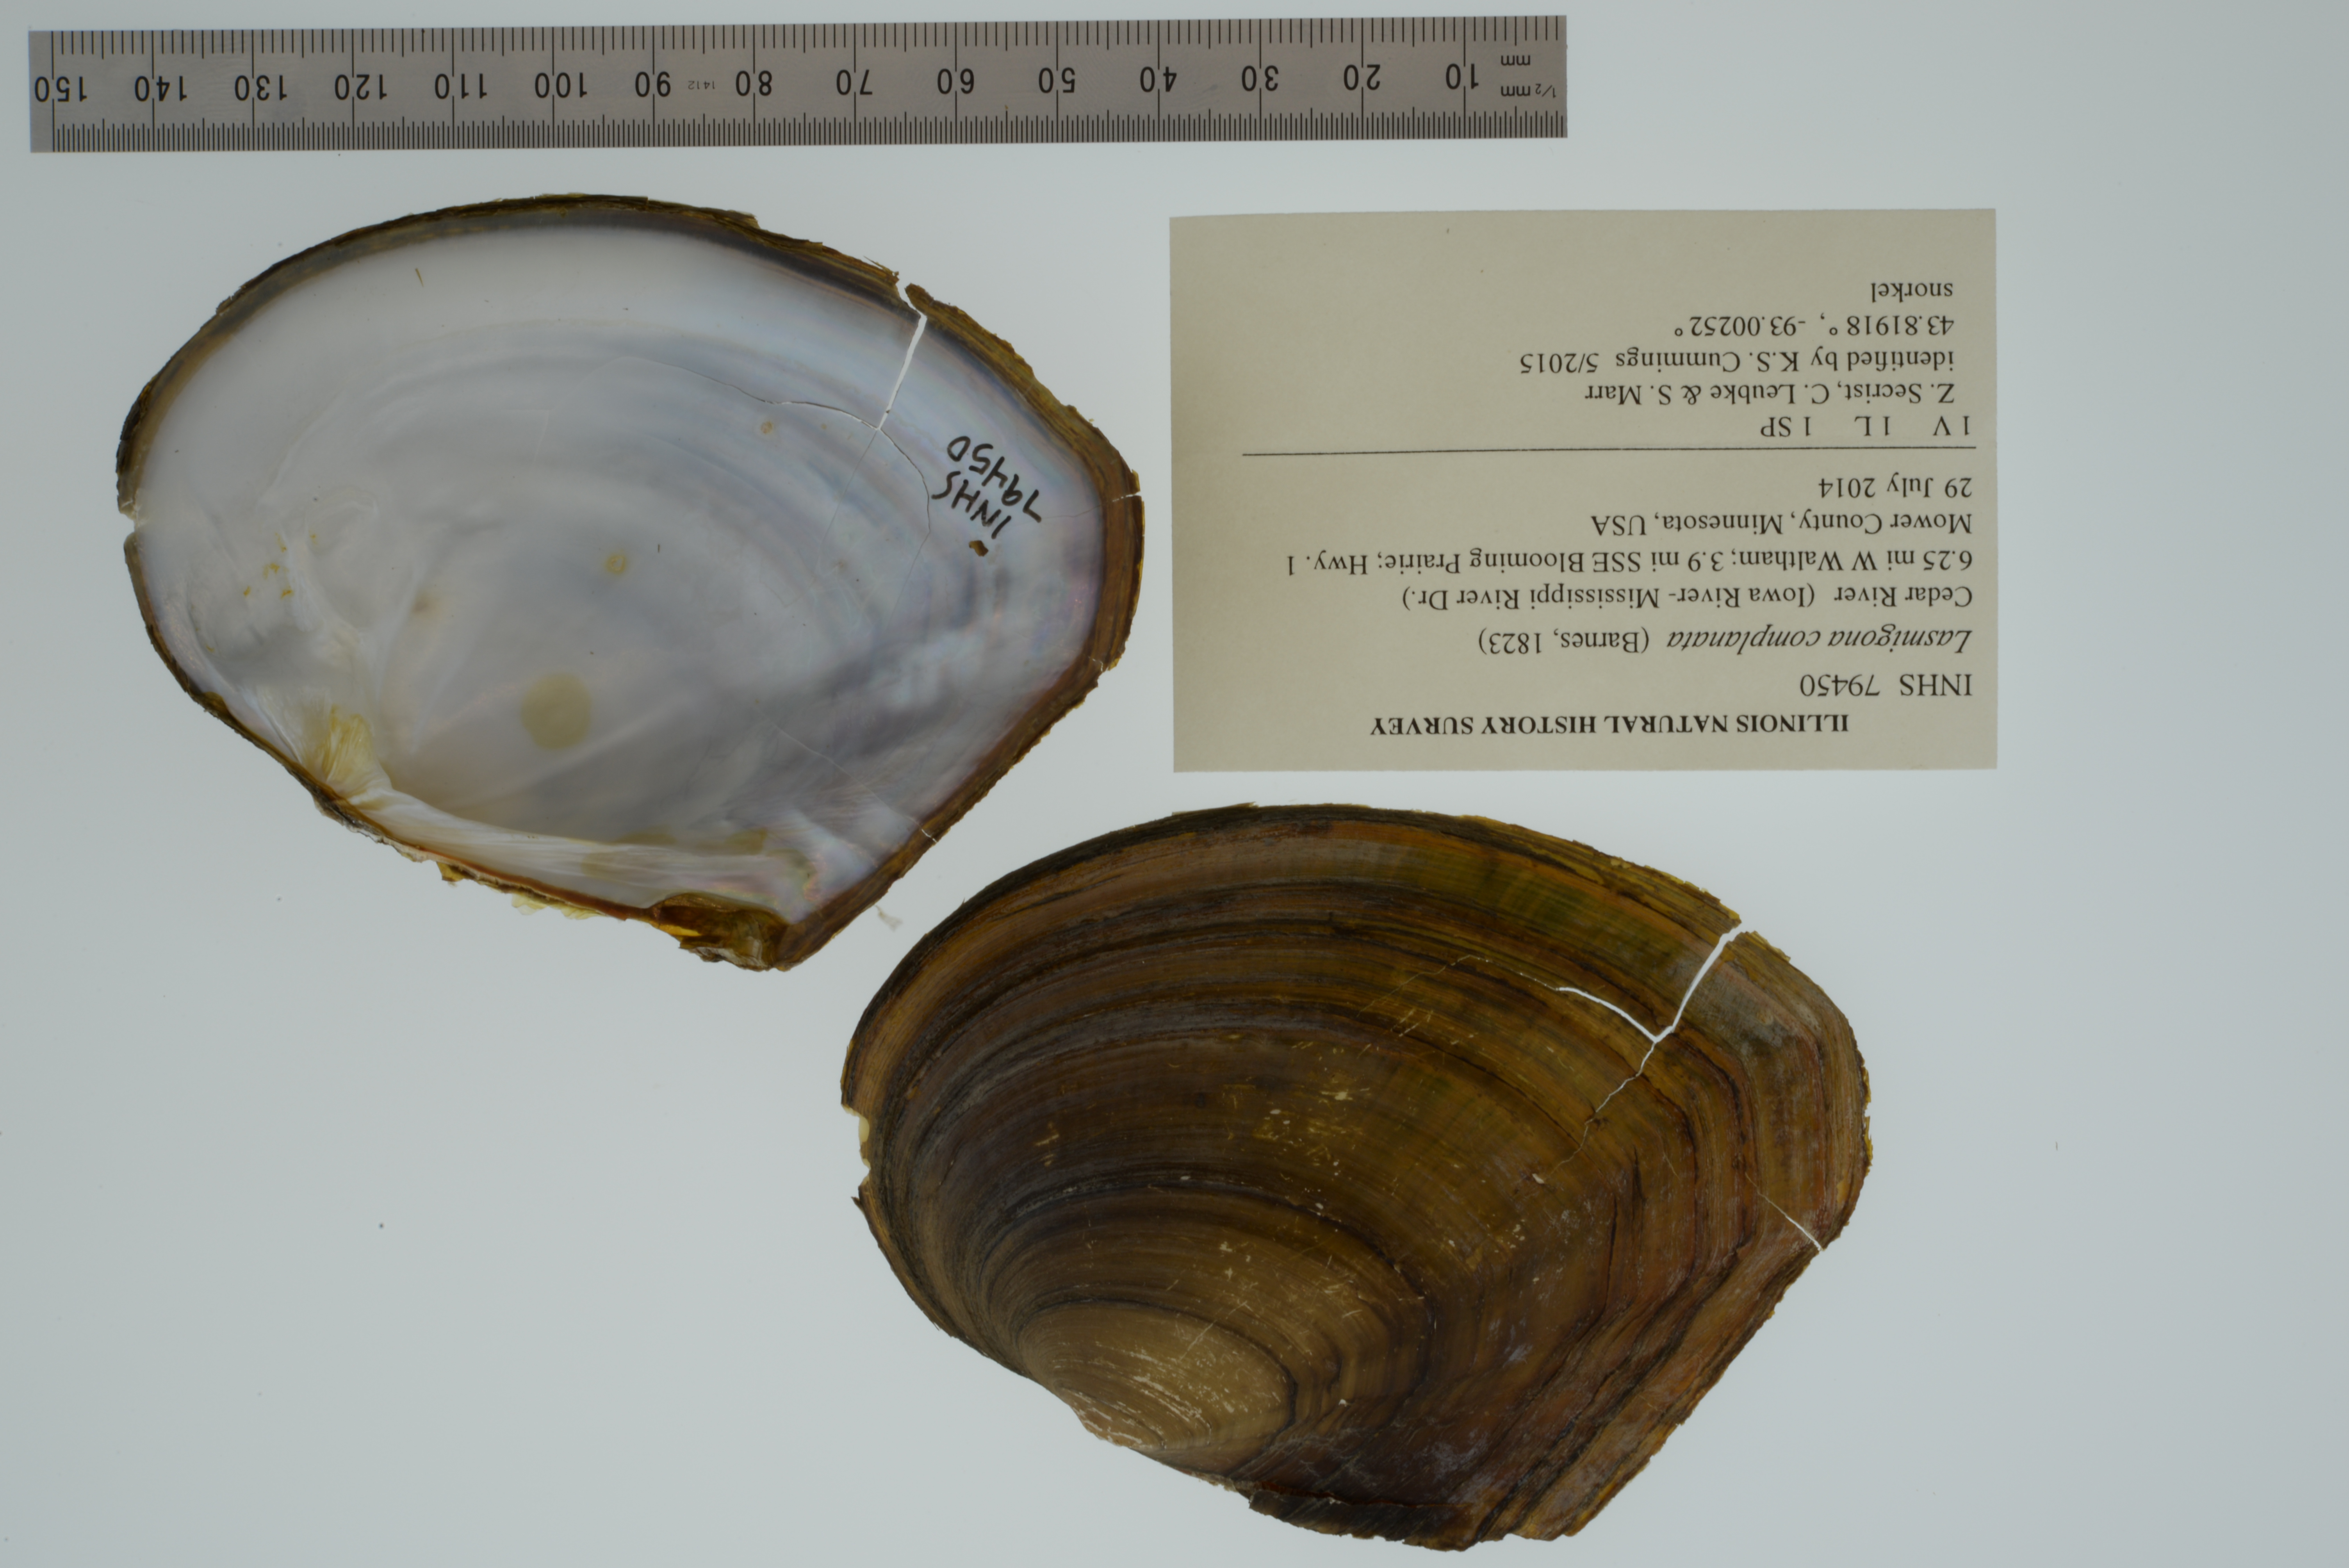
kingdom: Animalia
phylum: Mollusca
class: Bivalvia
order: Unionida
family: Unionidae
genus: Lasmigona
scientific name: Lasmigona complanata
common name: White heelsplitter
